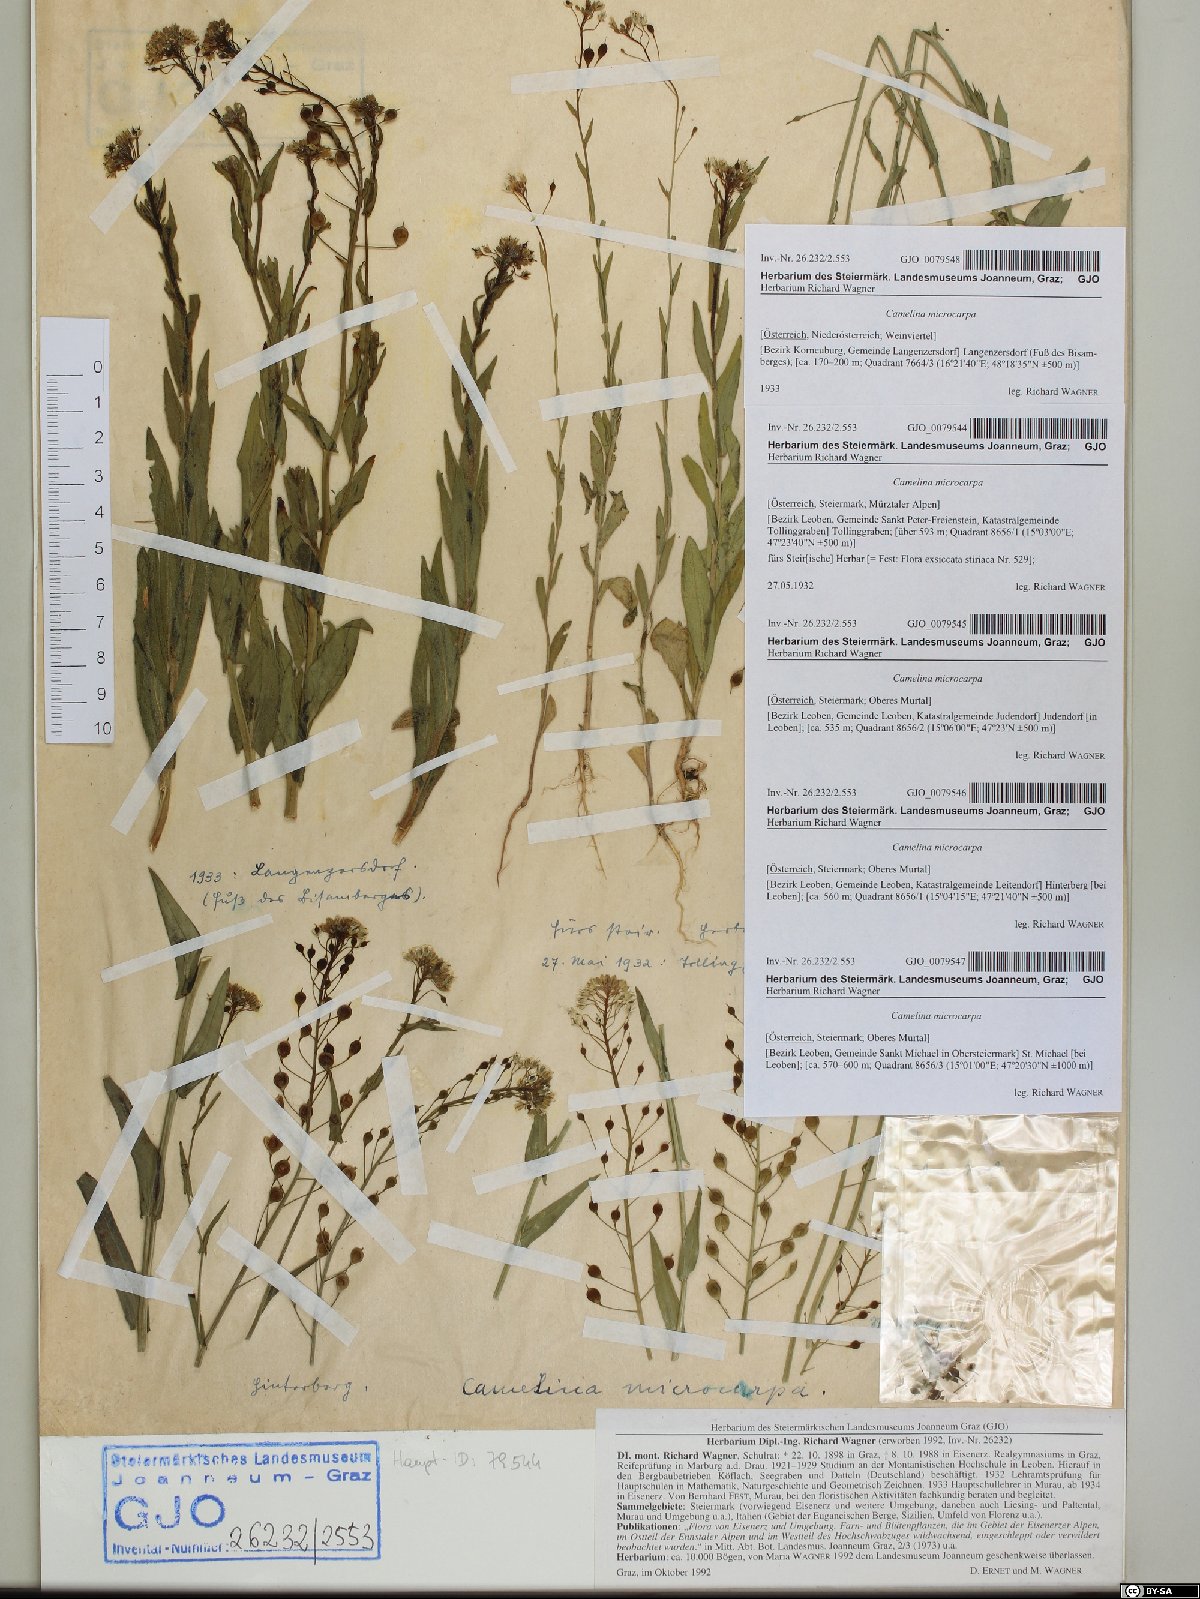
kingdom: Plantae
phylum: Tracheophyta
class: Magnoliopsida
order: Brassicales
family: Brassicaceae
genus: Camelina
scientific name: Camelina microcarpa
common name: Lesser gold-of-pleasure
